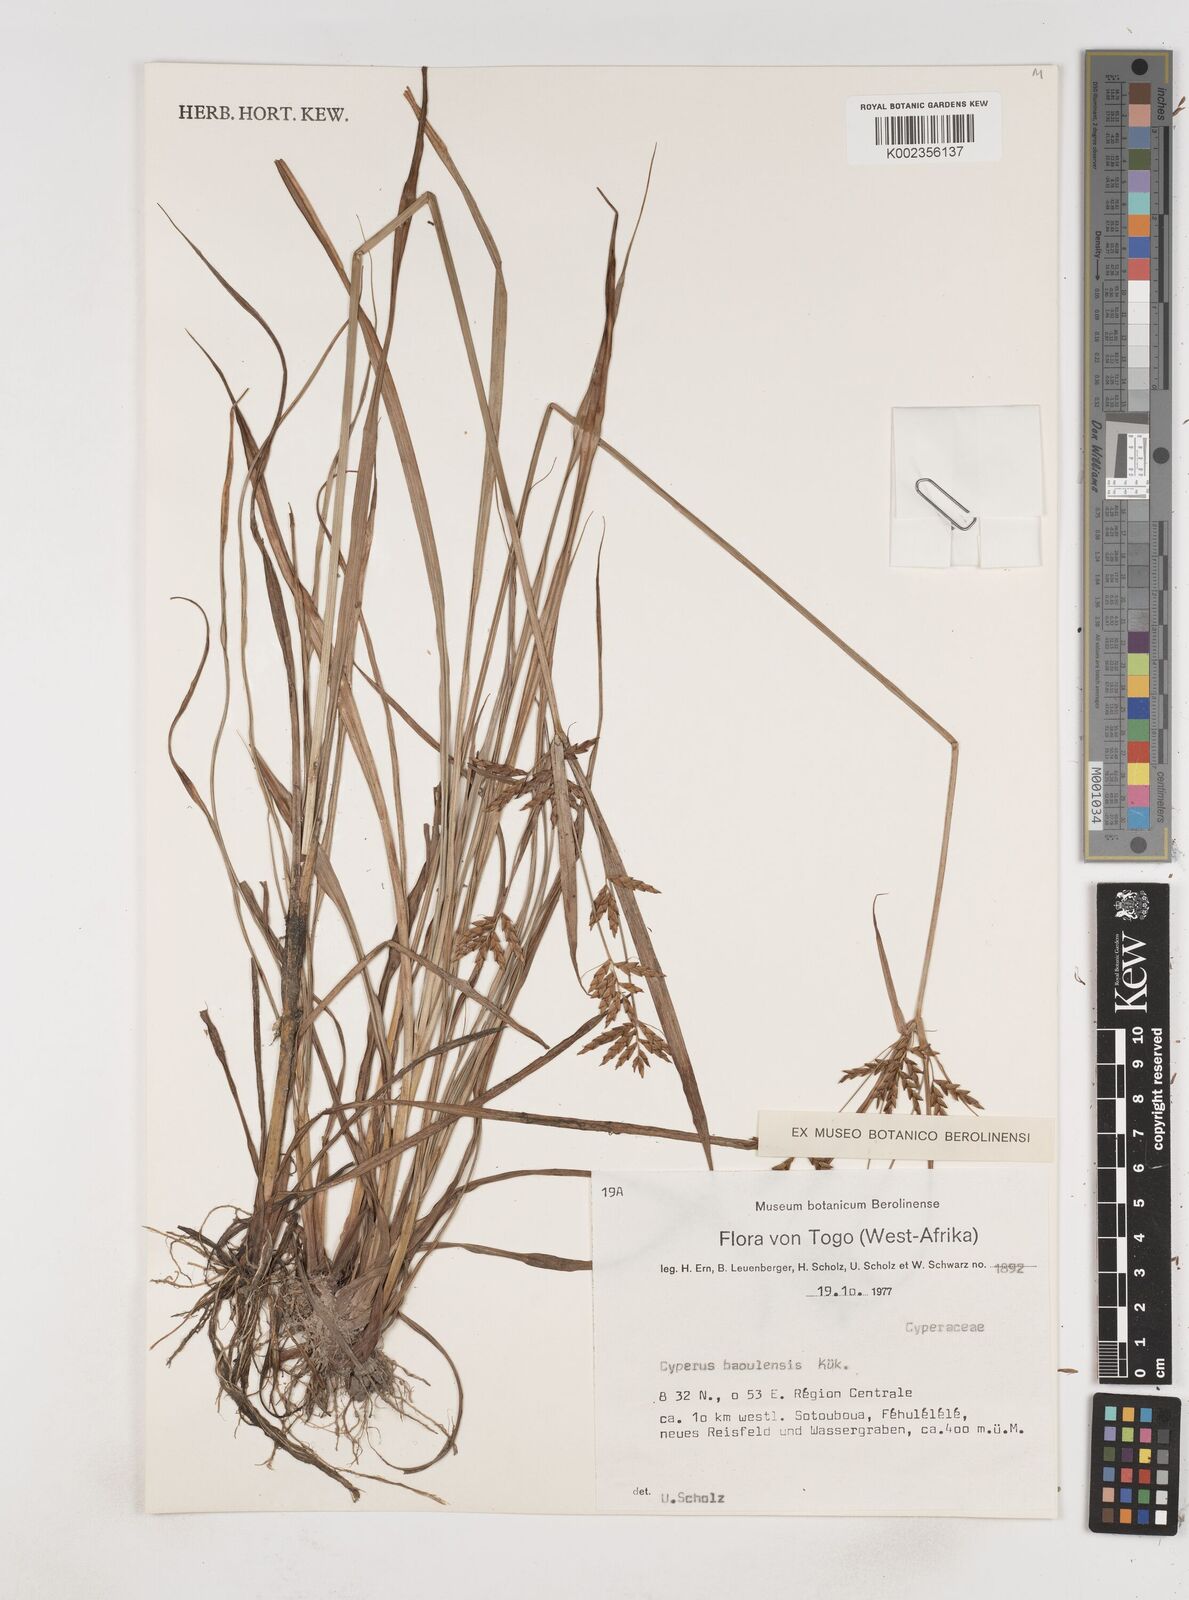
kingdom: Plantae
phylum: Tracheophyta
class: Liliopsida
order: Poales
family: Cyperaceae
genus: Cyperus
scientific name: Cyperus baoulensis
